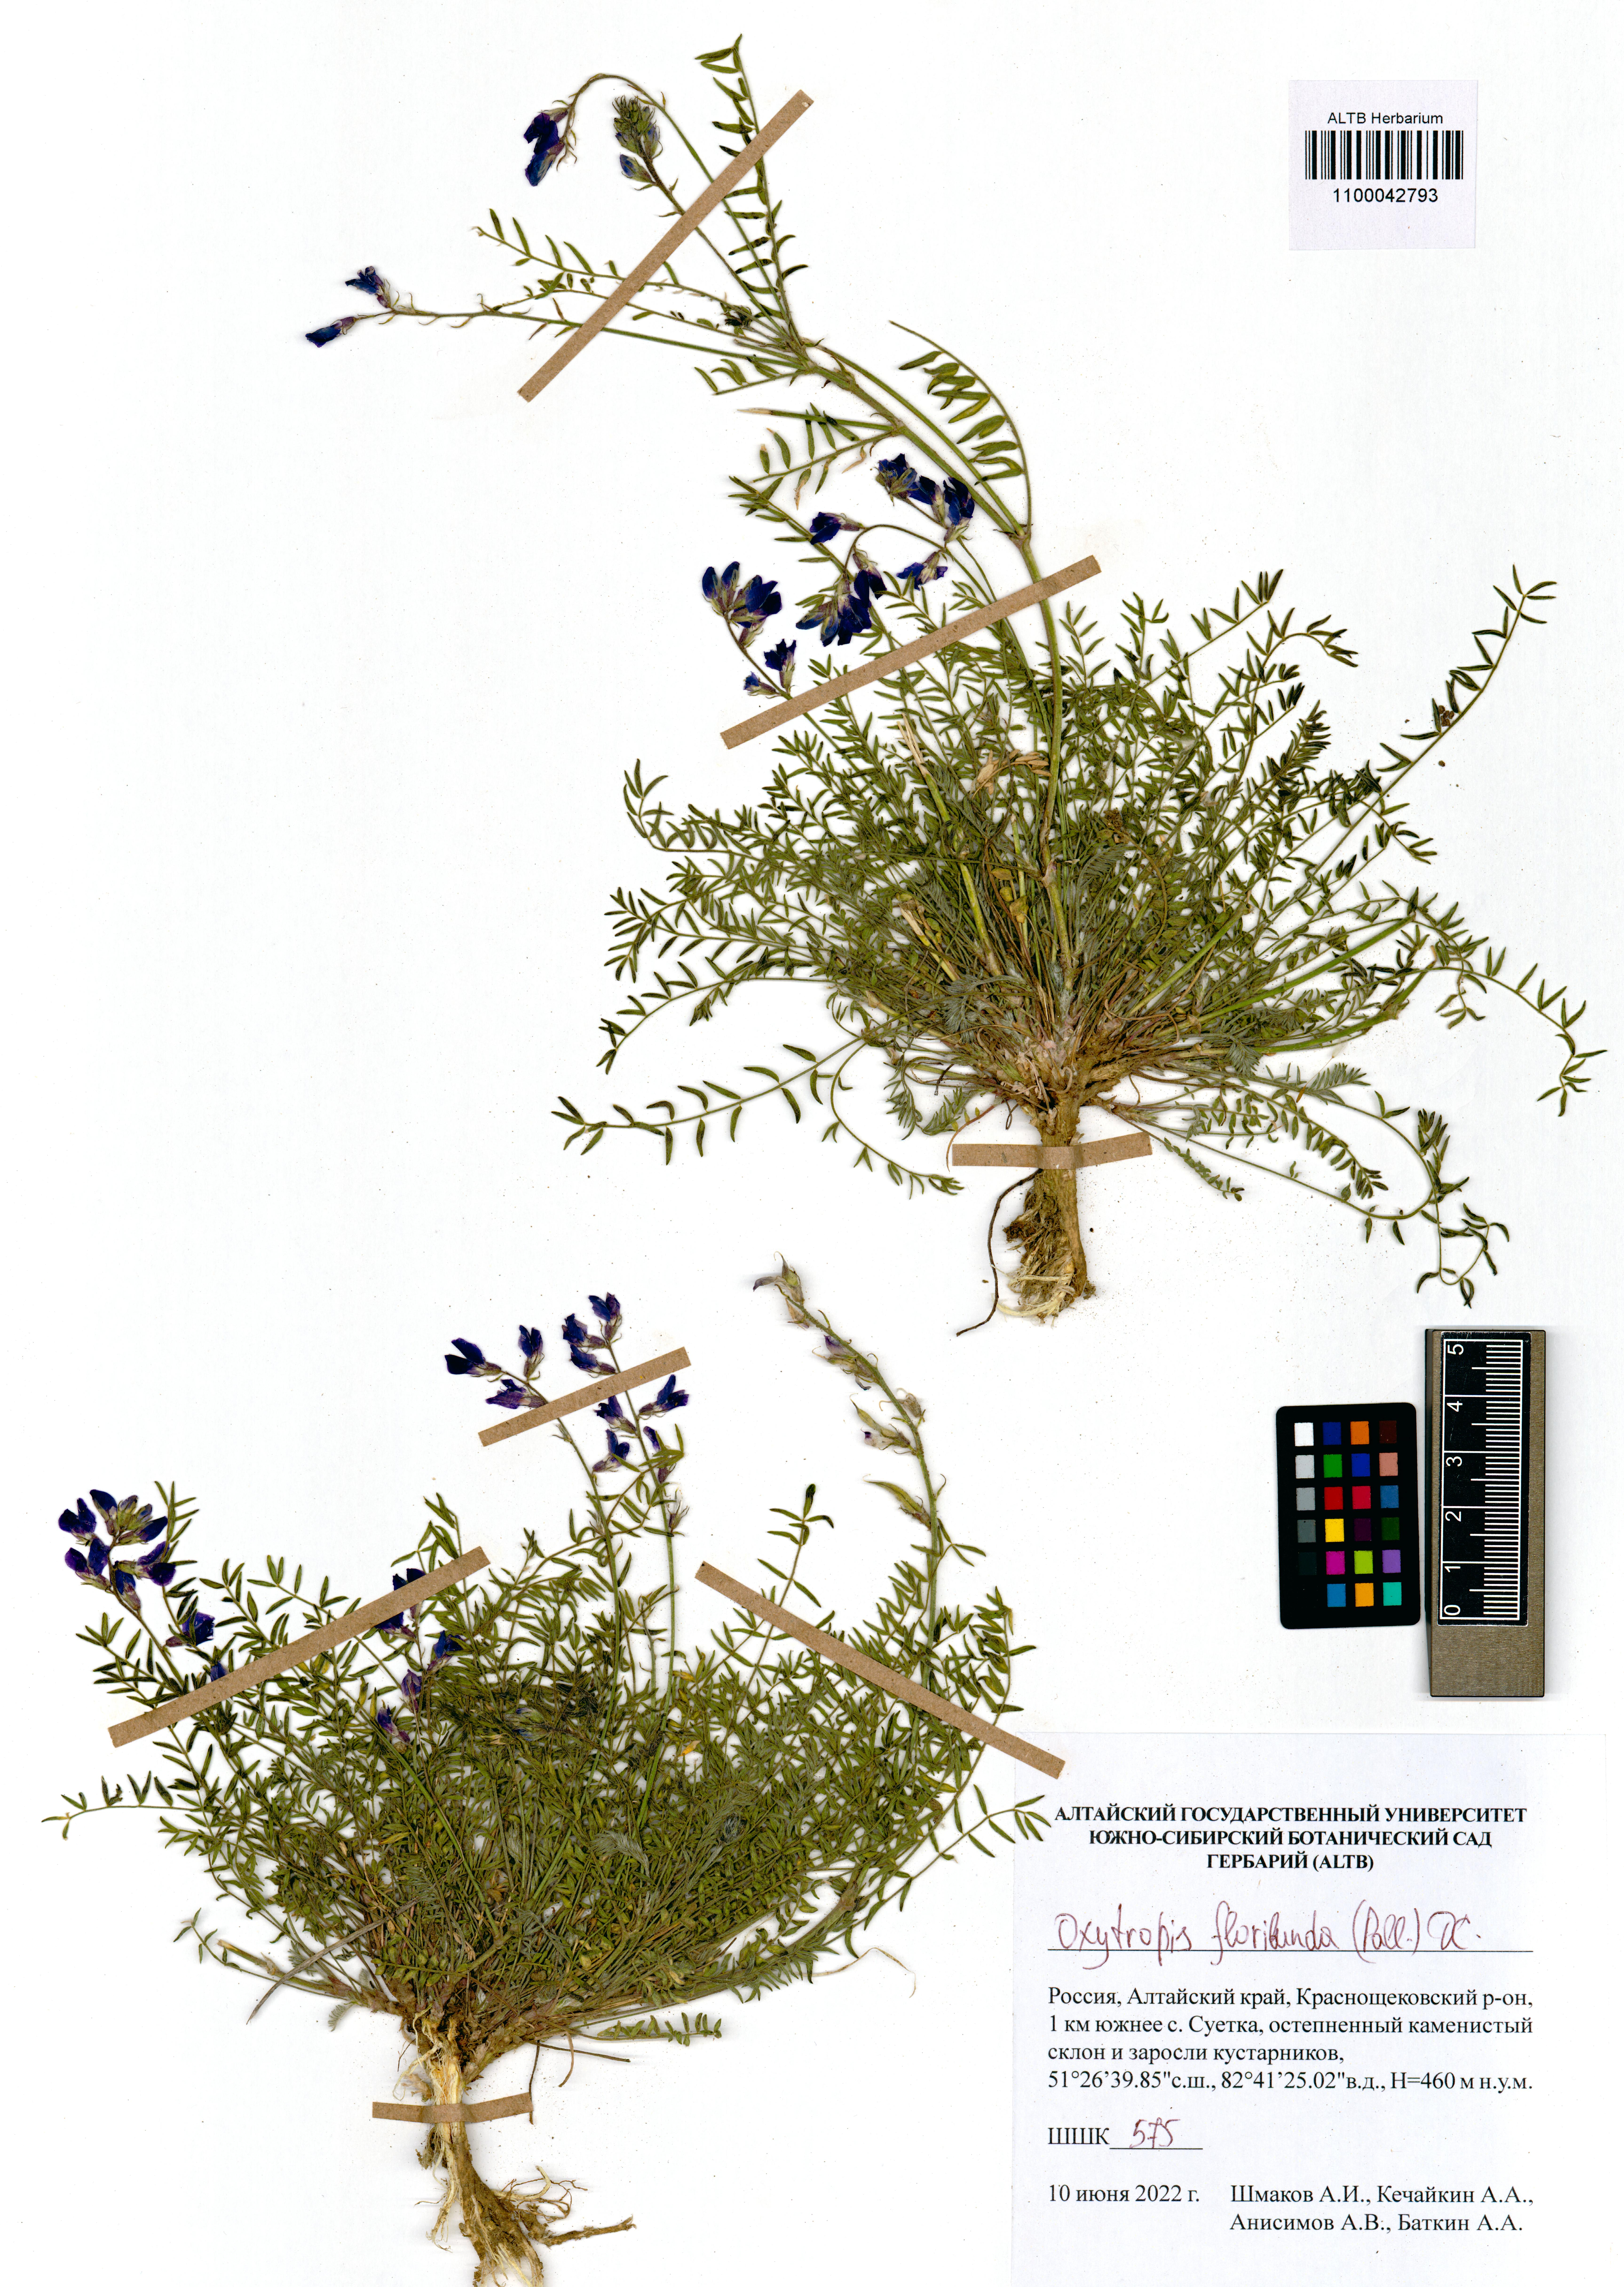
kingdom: Plantae
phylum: Tracheophyta
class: Magnoliopsida
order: Fabales
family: Fabaceae
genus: Oxytropis
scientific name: Oxytropis floribunda
